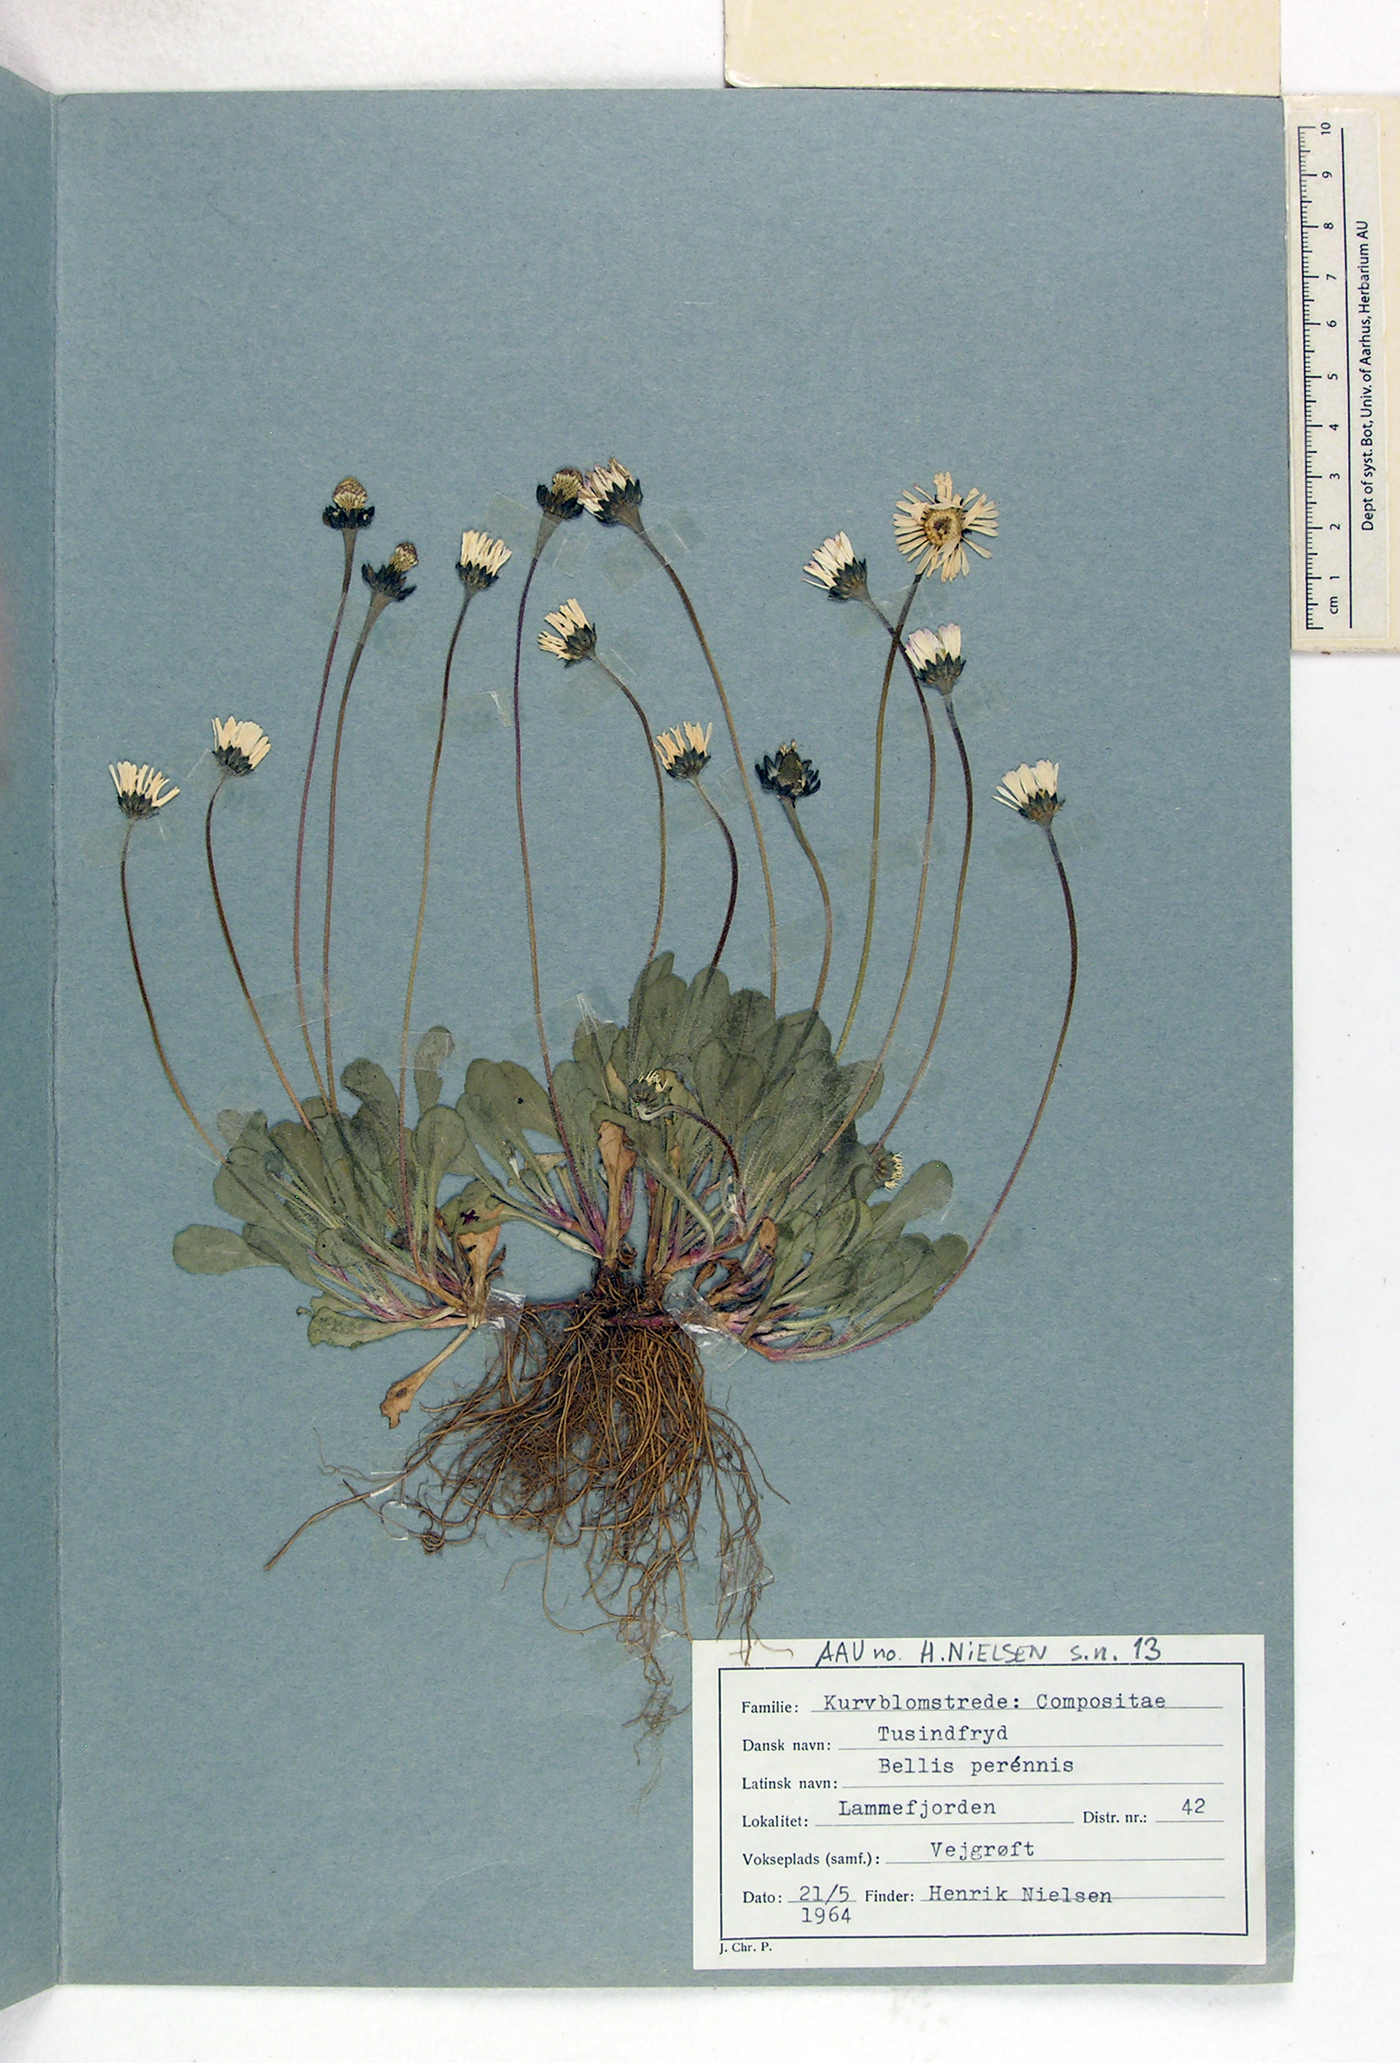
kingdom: Plantae
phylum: Tracheophyta
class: Magnoliopsida
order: Asterales
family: Asteraceae
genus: Bellis
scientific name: Bellis perennis
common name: Lawndaisy
